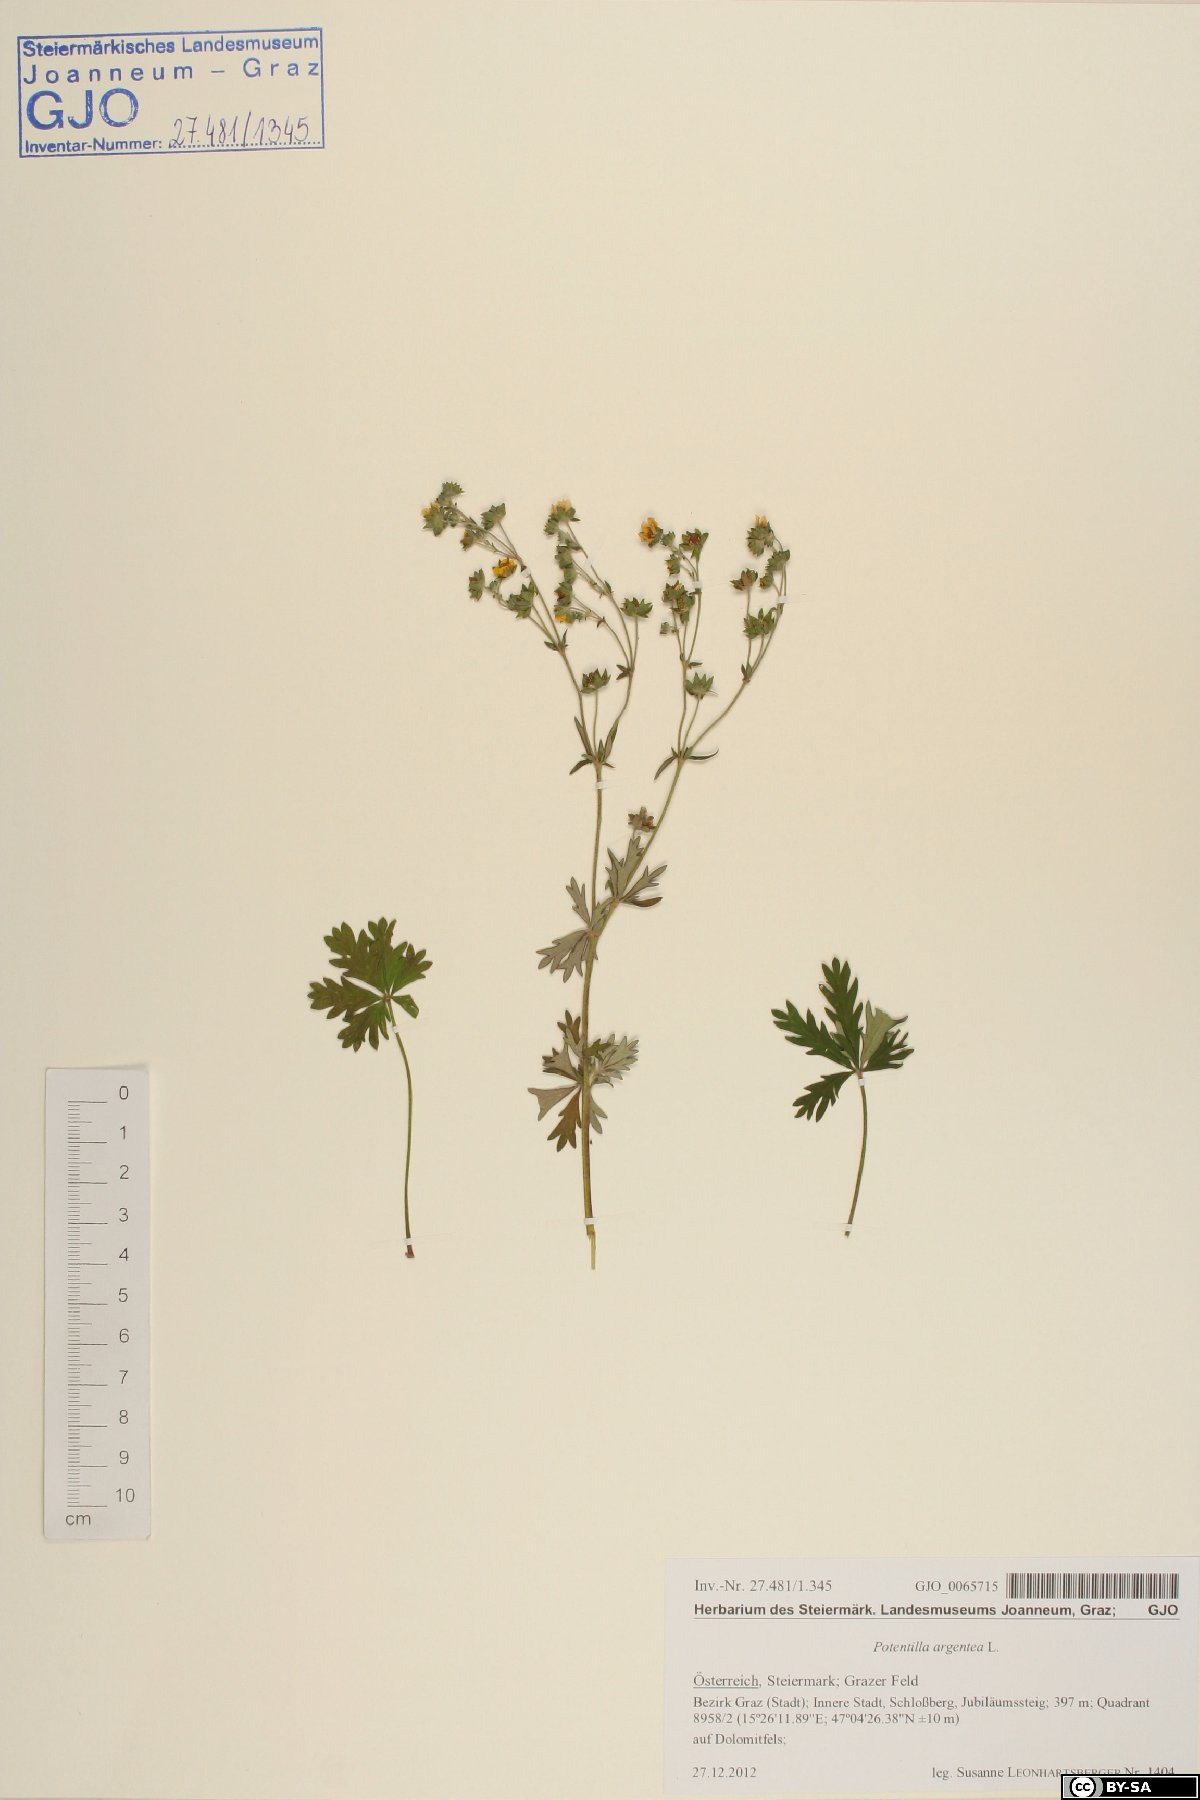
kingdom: Plantae
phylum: Tracheophyta
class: Magnoliopsida
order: Rosales
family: Rosaceae
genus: Potentilla
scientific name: Potentilla argentea
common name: Hoary cinquefoil
